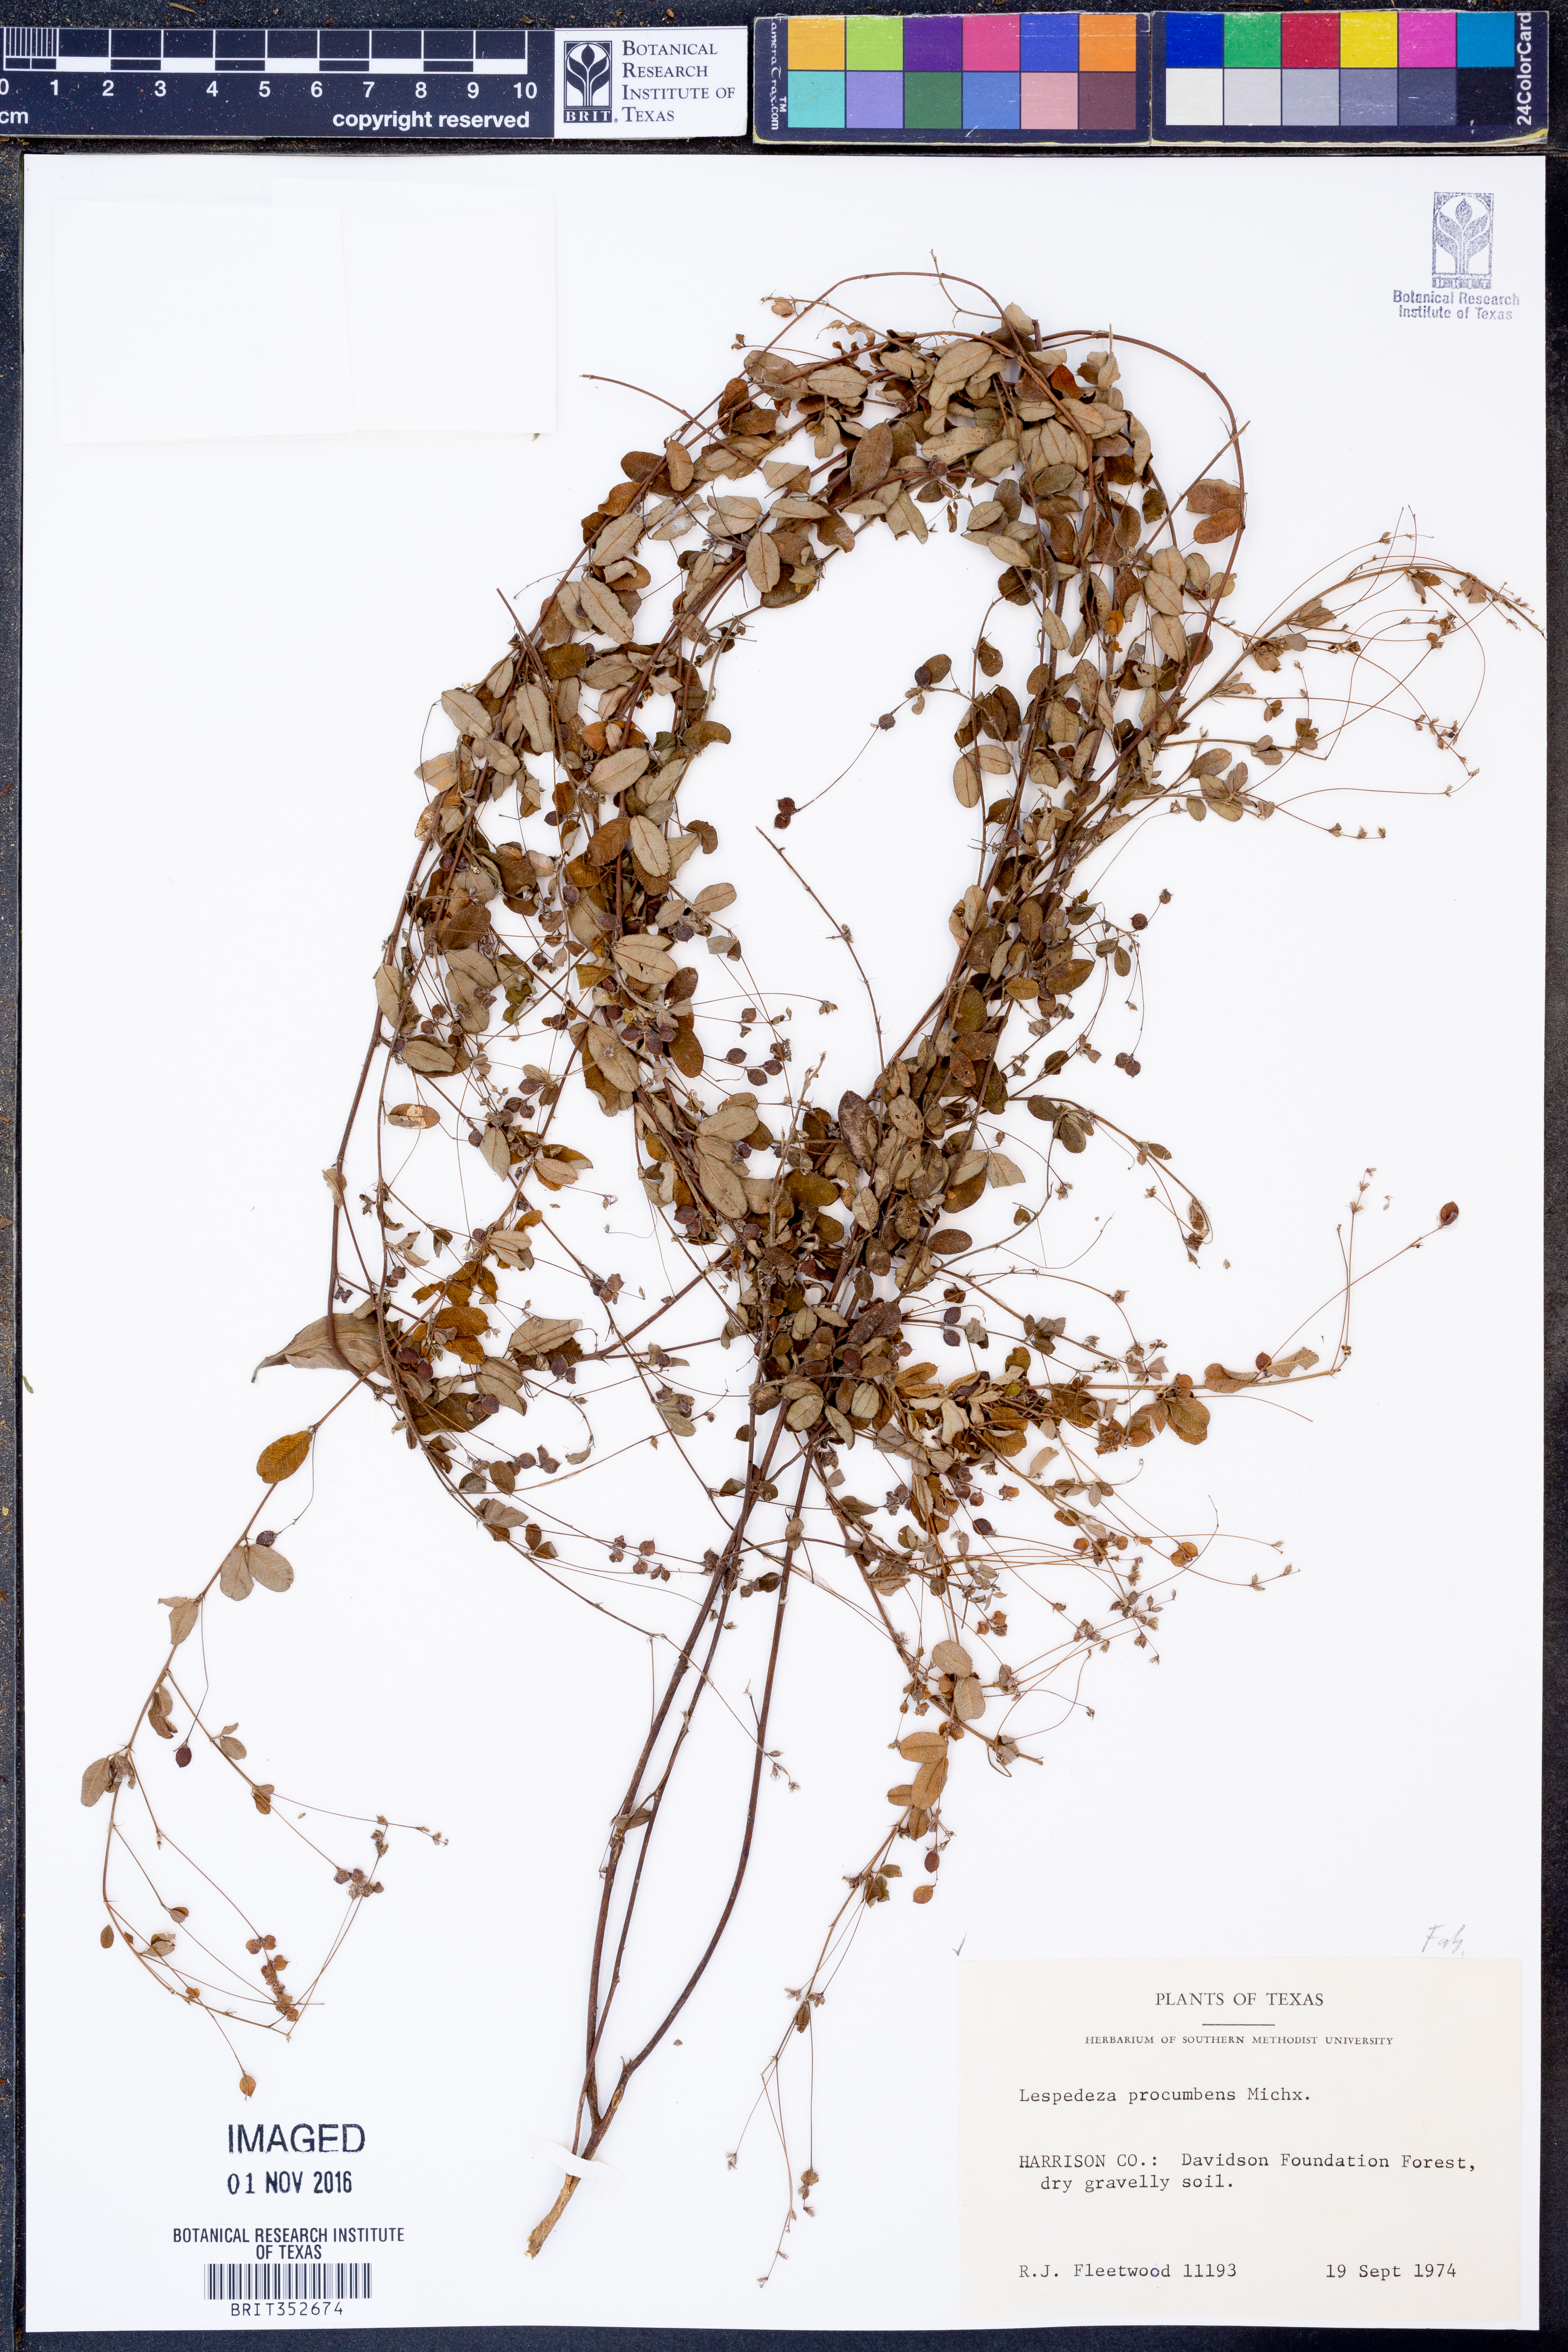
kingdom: Plantae
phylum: Tracheophyta
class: Magnoliopsida
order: Fabales
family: Fabaceae
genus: Lespedeza
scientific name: Lespedeza procumbens
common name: Downy trailing bush-clover
